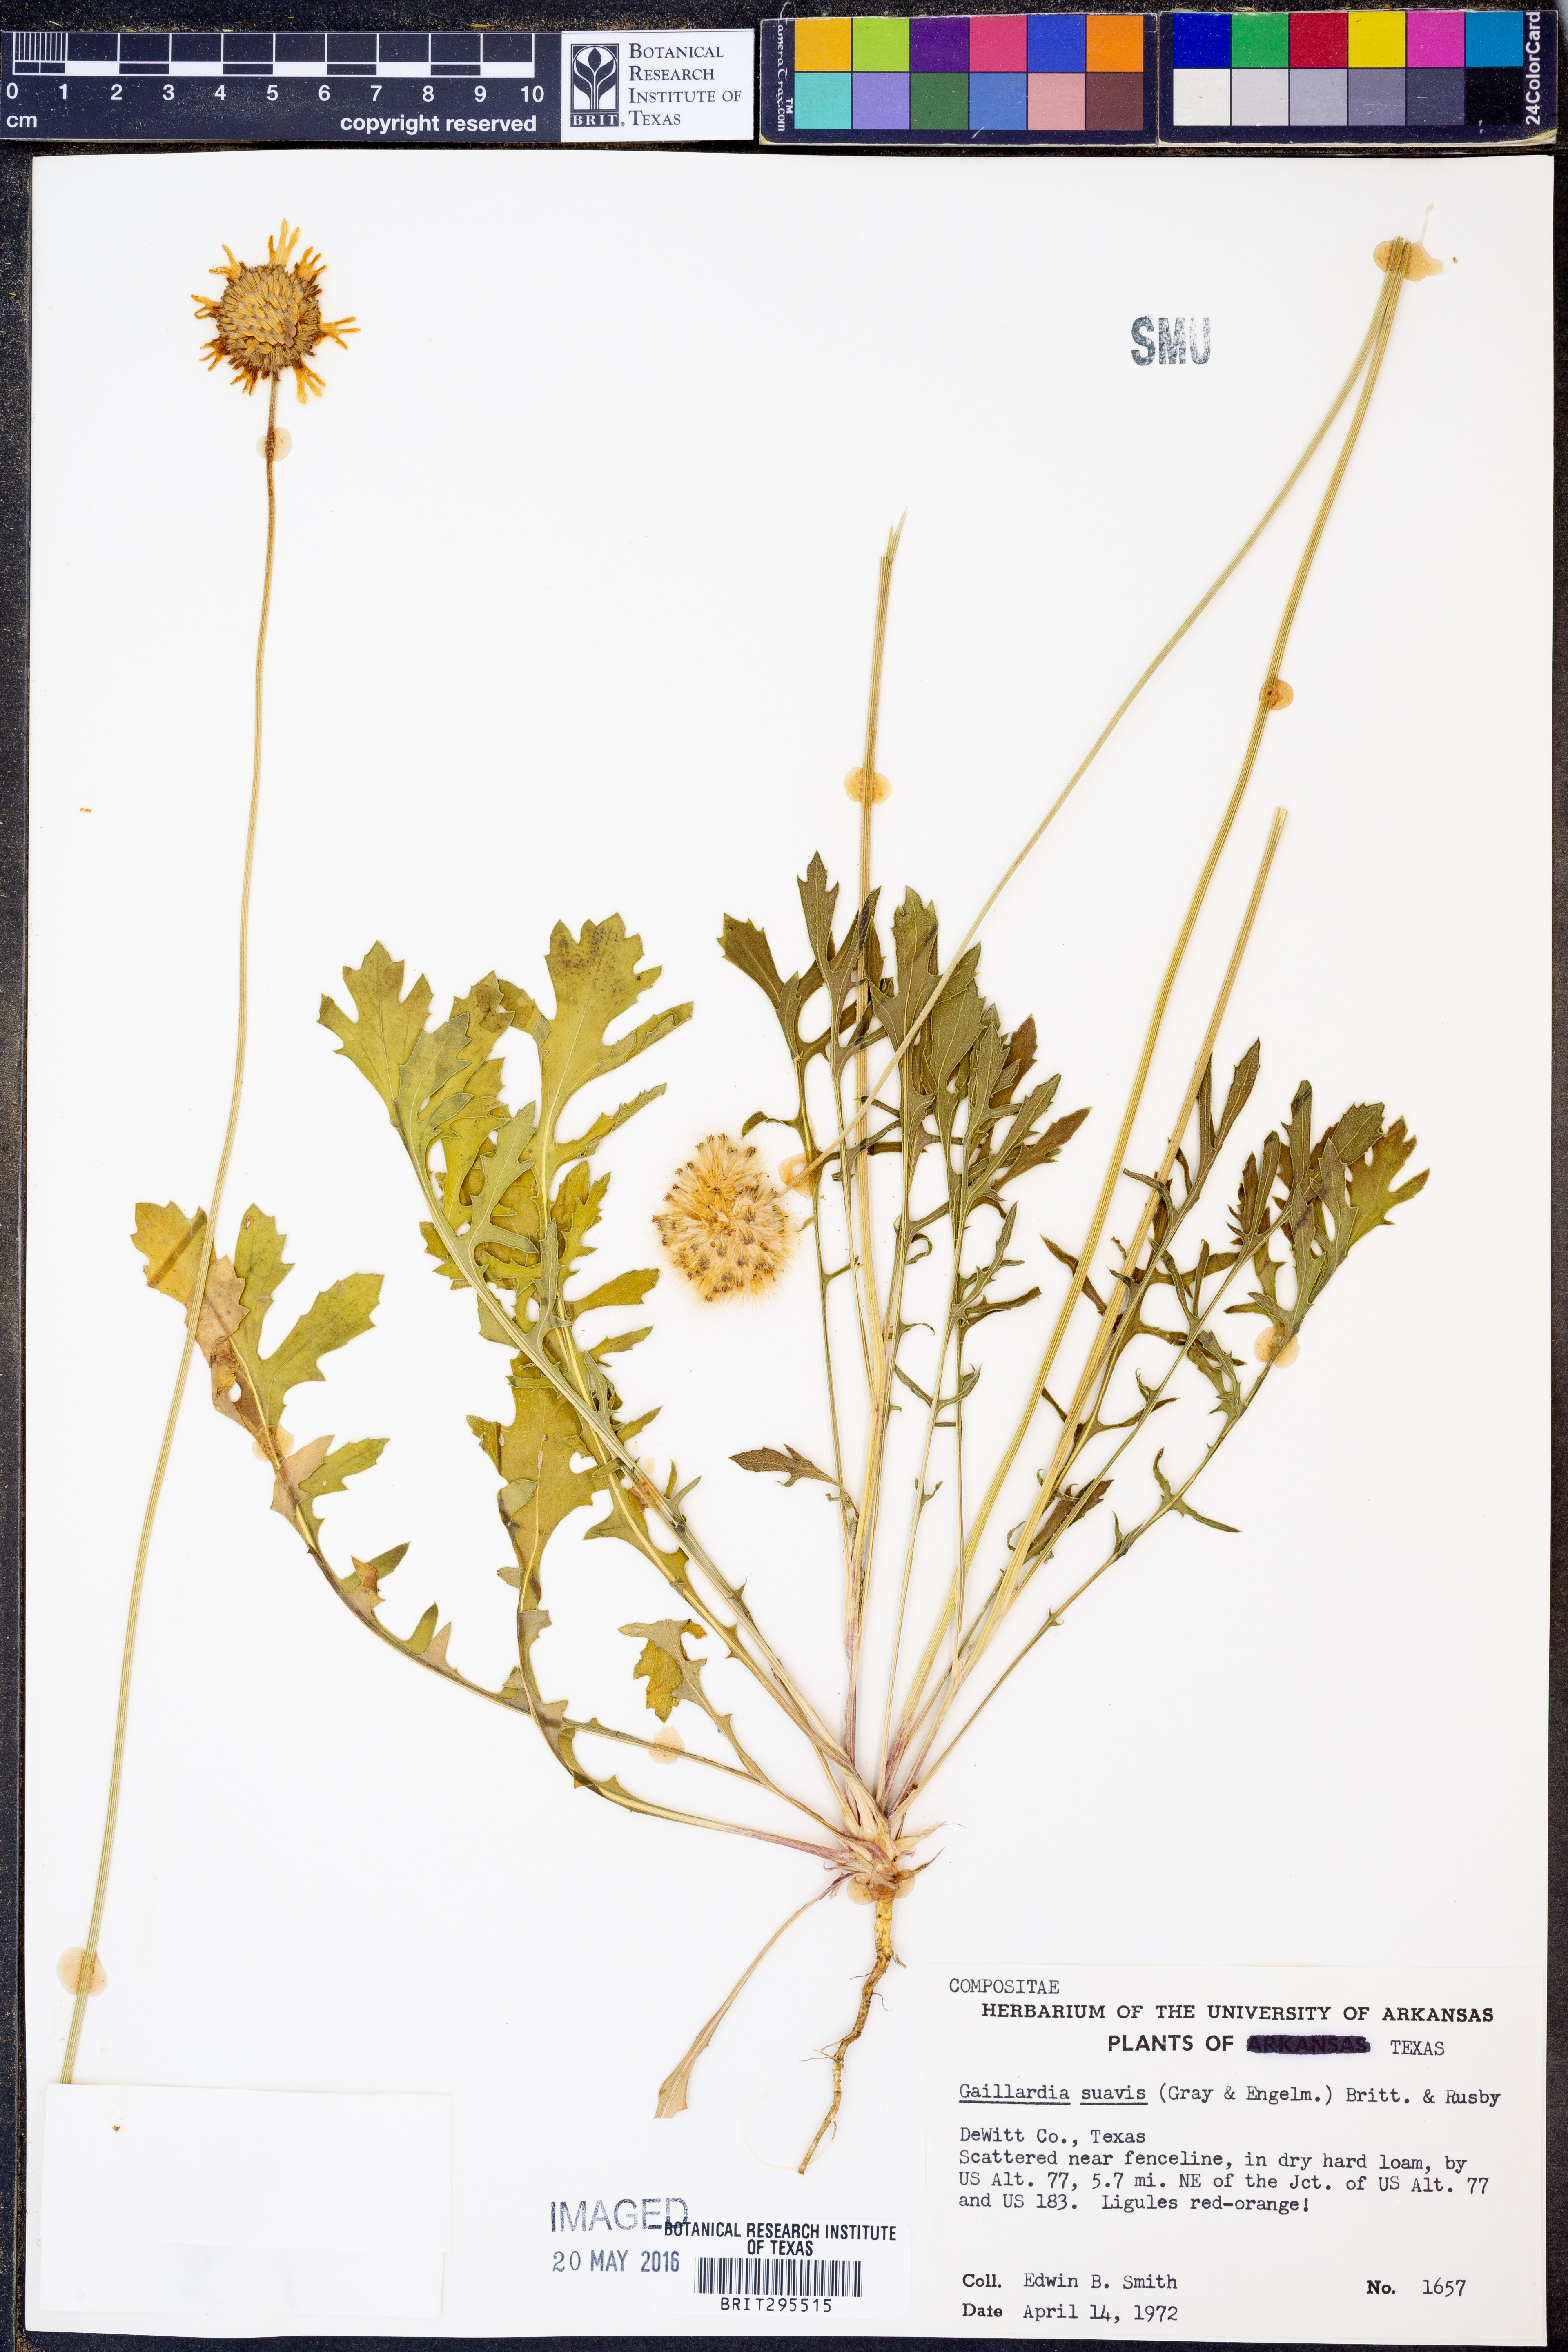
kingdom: Plantae
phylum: Tracheophyta
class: Magnoliopsida
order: Asterales
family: Asteraceae
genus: Gaillardia
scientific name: Gaillardia suavis
